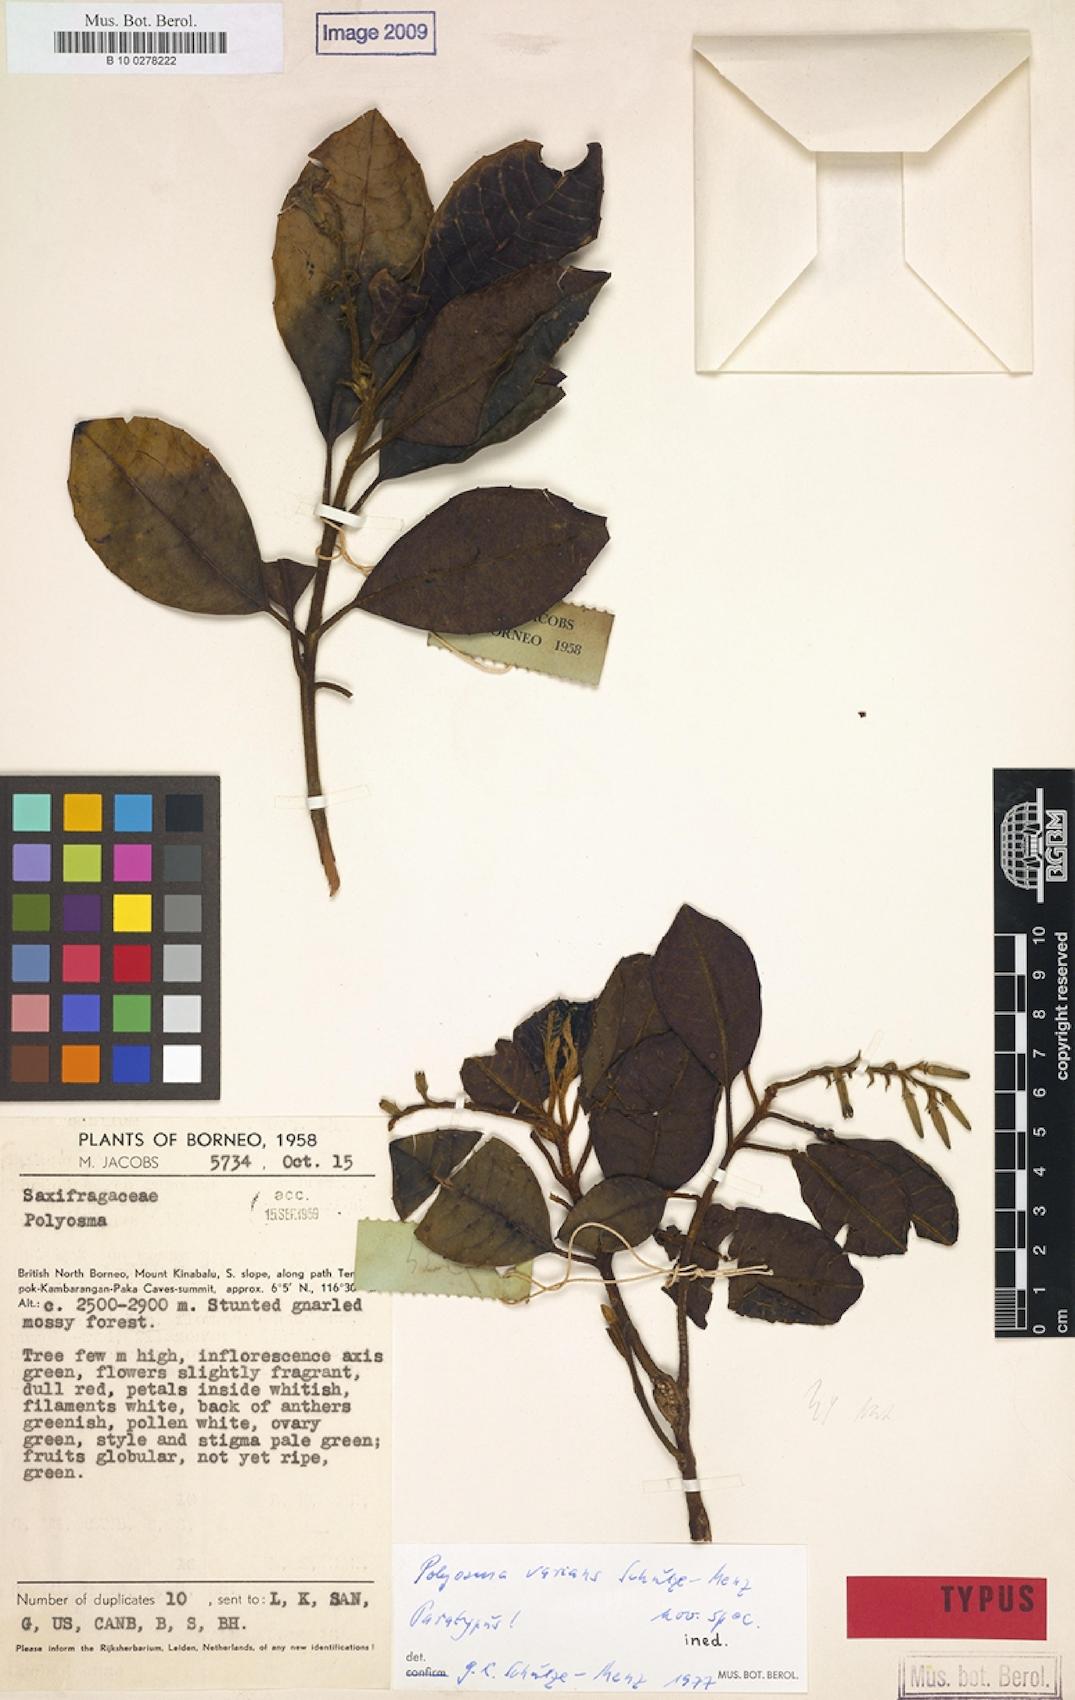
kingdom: Plantae
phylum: Tracheophyta
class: Magnoliopsida
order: Escalloniales
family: Escalloniaceae
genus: Polyosma
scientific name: Polyosma
